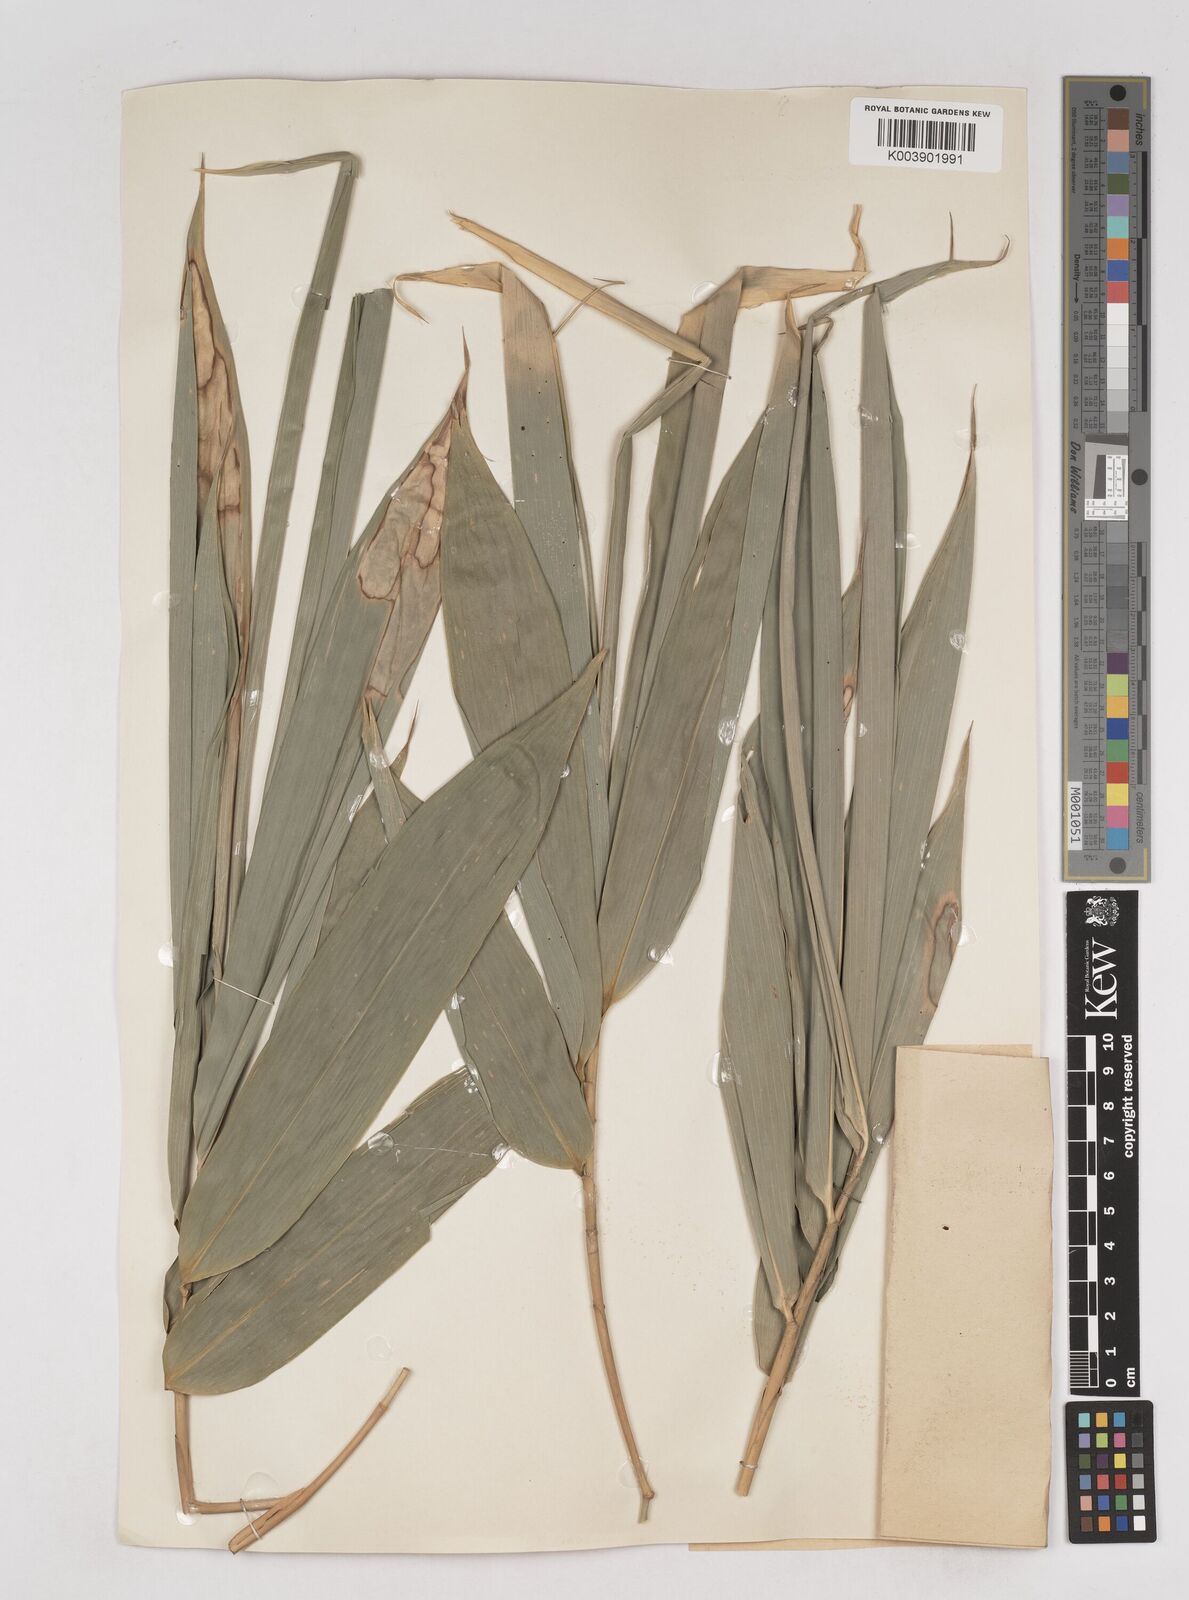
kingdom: Plantae
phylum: Tracheophyta
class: Liliopsida
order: Poales
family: Poaceae
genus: Schizostachyum
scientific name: Schizostachyum brachycladum
